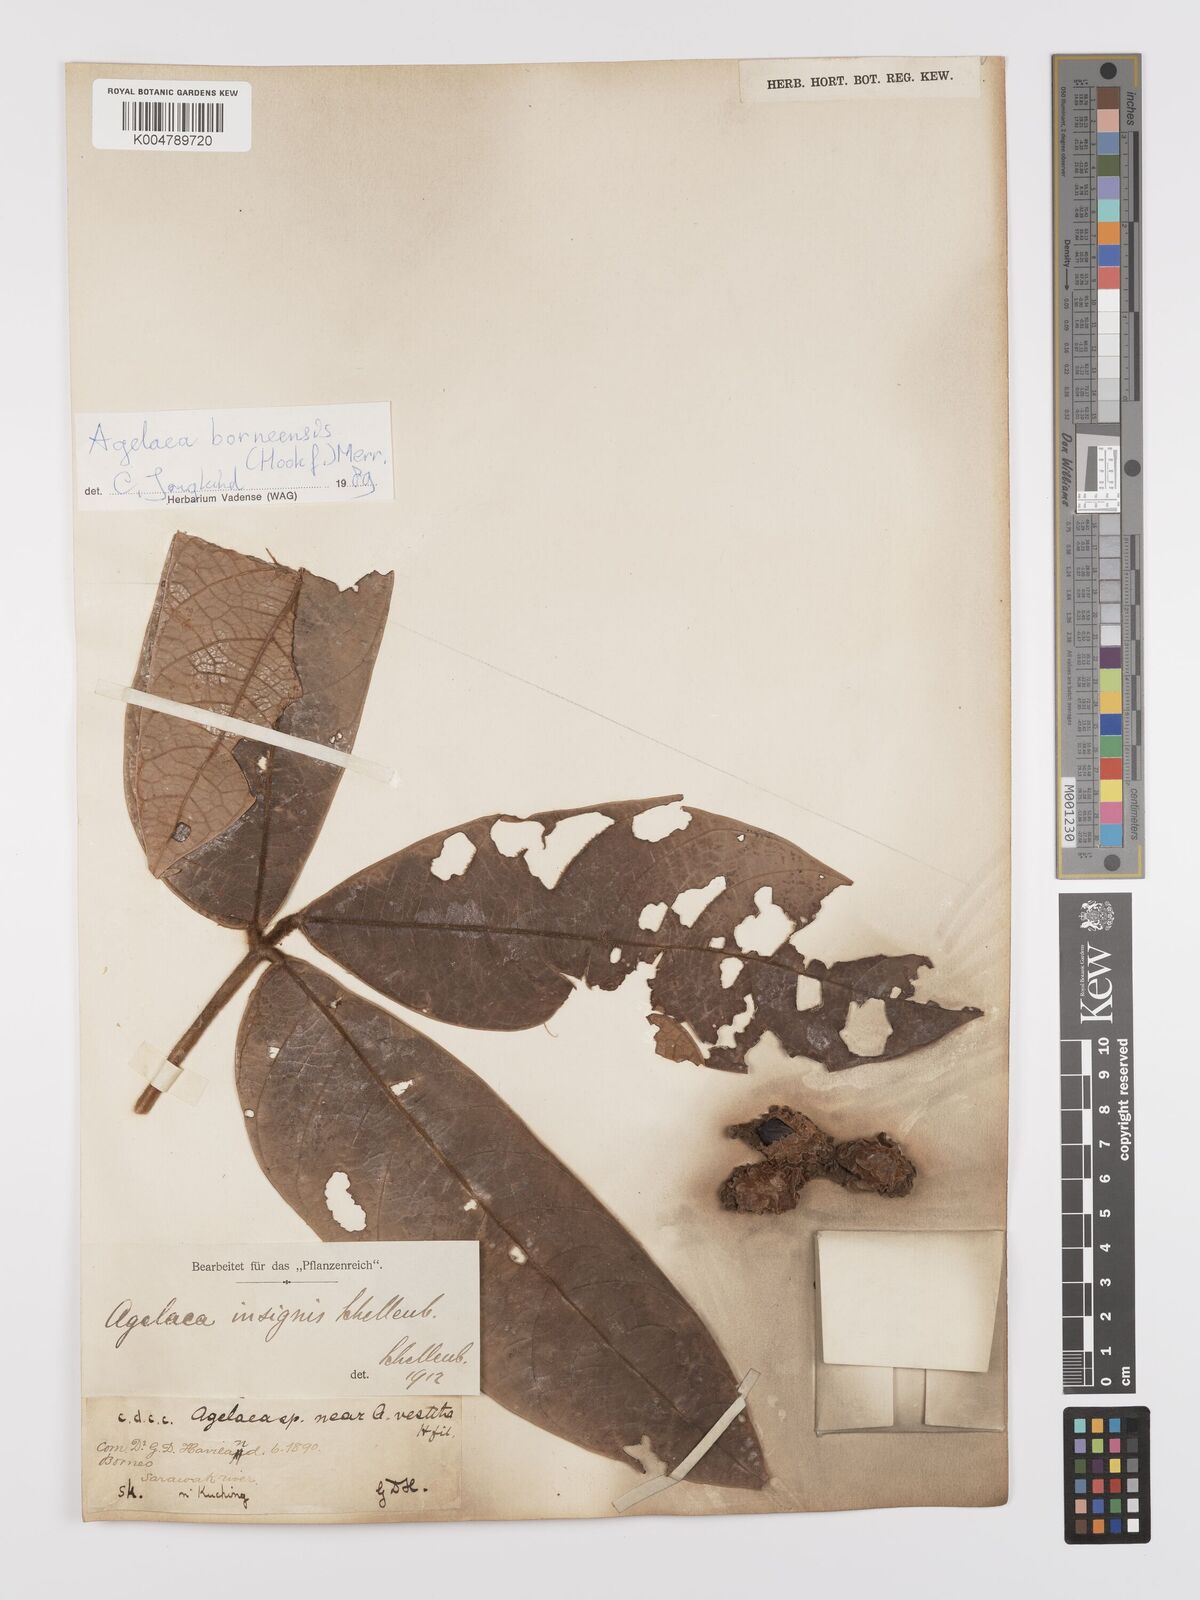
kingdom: Plantae
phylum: Tracheophyta
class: Magnoliopsida
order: Oxalidales
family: Connaraceae
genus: Agelaea
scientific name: Agelaea insignis
